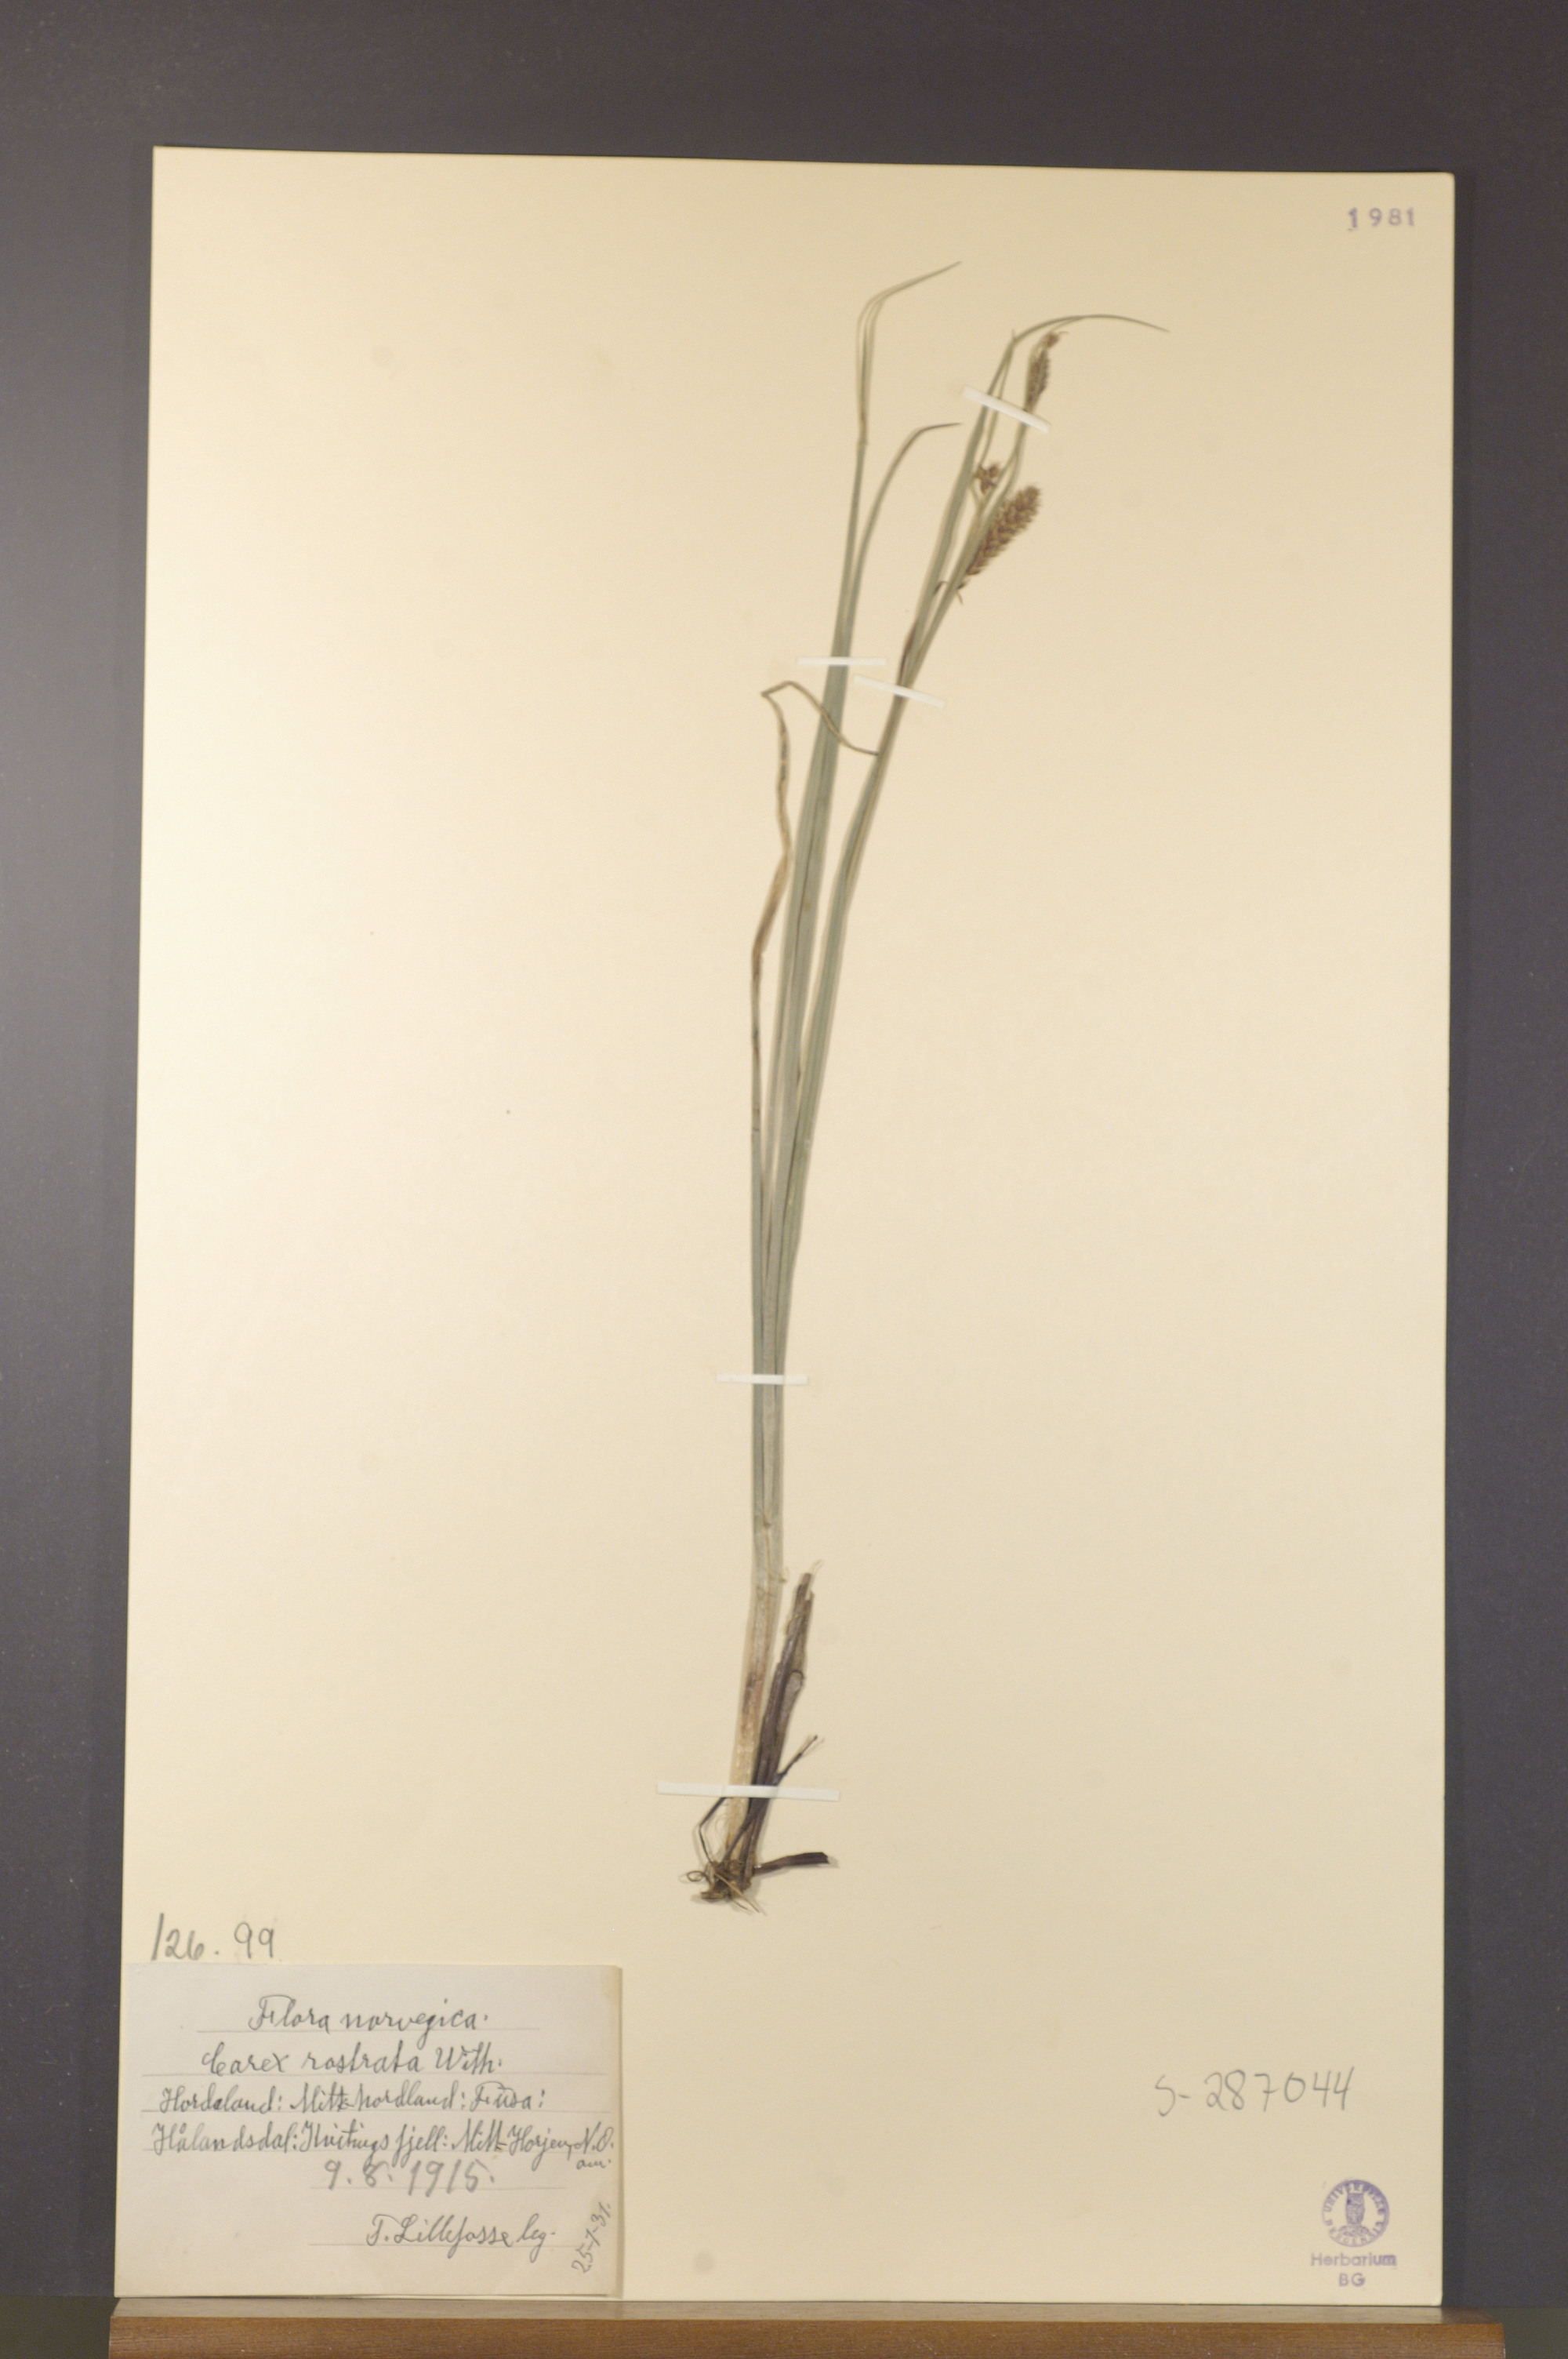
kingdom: Plantae
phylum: Tracheophyta
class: Liliopsida
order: Poales
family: Cyperaceae
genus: Carex
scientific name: Carex rostrata
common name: Bottle sedge
